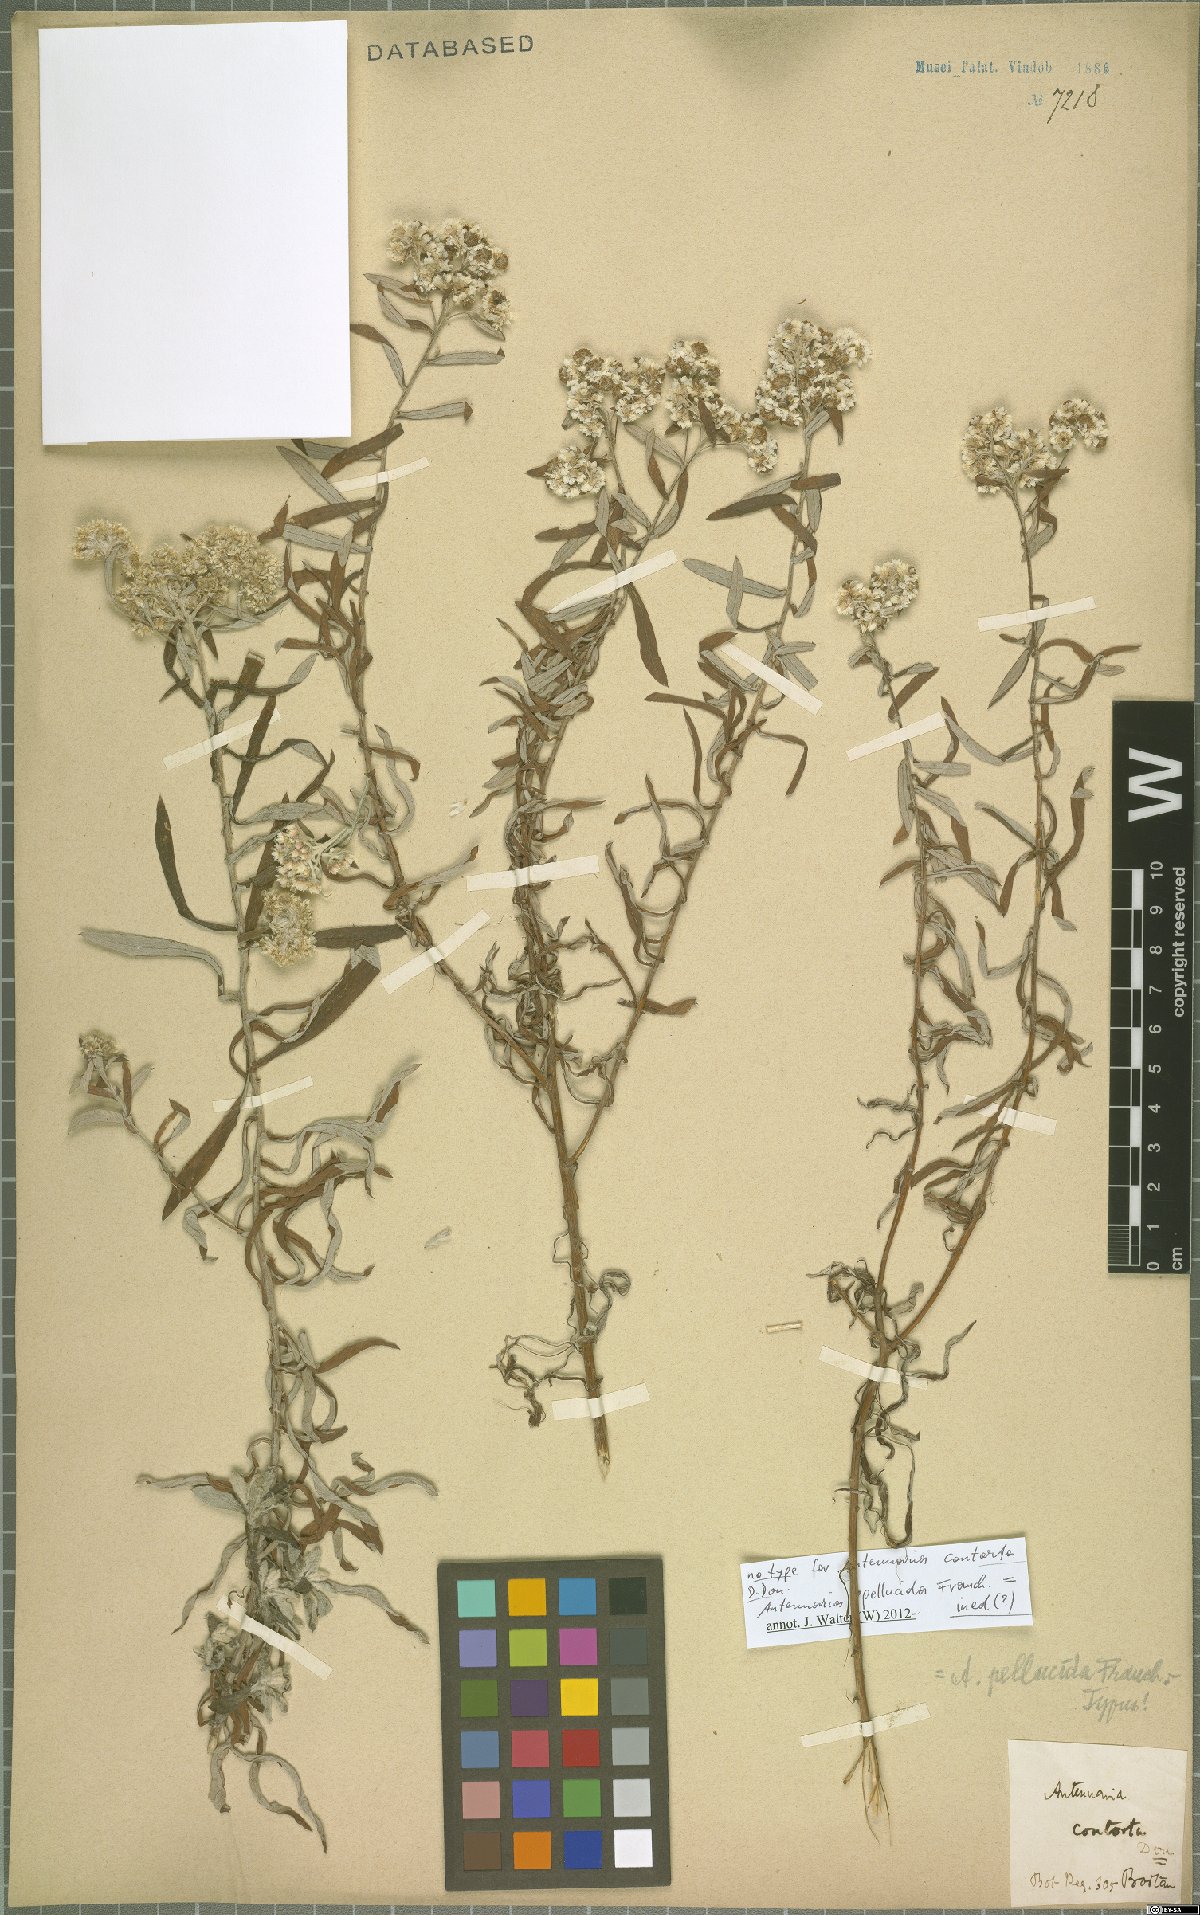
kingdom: Plantae
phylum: Tracheophyta
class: Magnoliopsida
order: Asterales
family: Asteraceae
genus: Antennaria
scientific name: Antennaria
